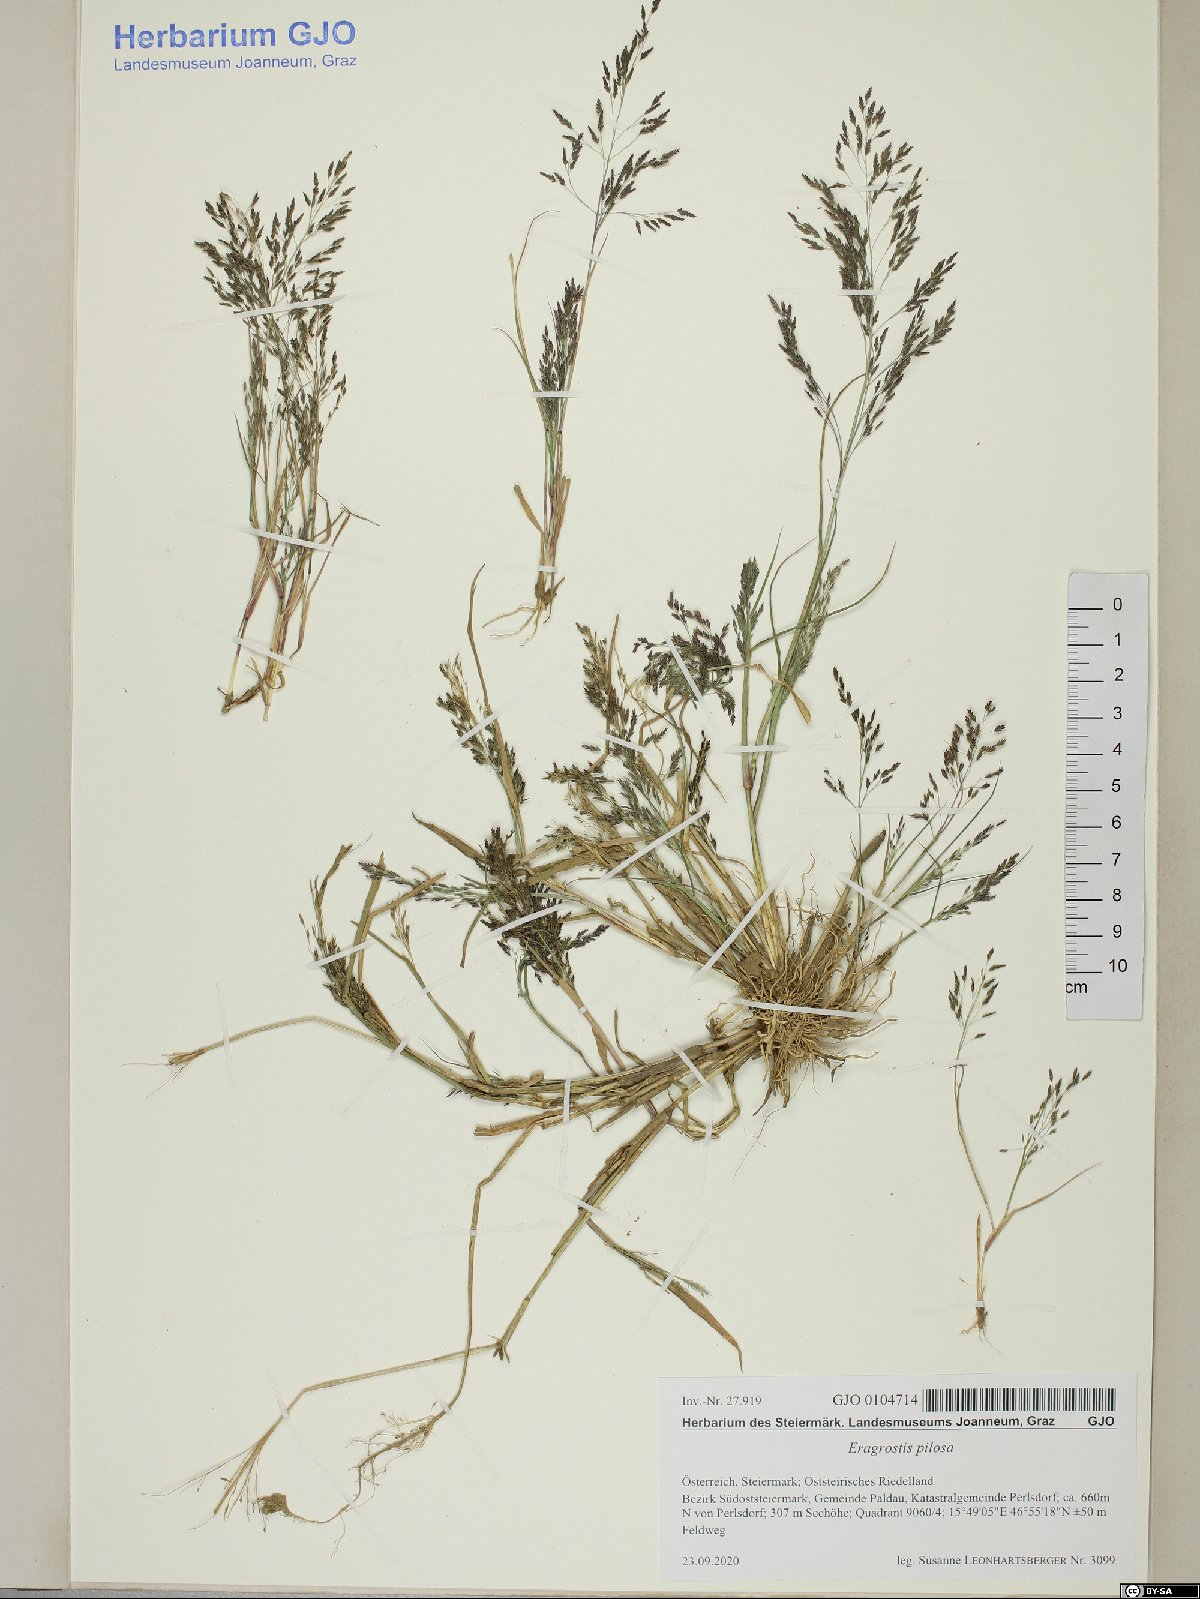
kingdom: Plantae
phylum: Tracheophyta
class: Liliopsida
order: Poales
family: Poaceae
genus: Eragrostis
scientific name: Eragrostis pilosa
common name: Indian lovegrass
